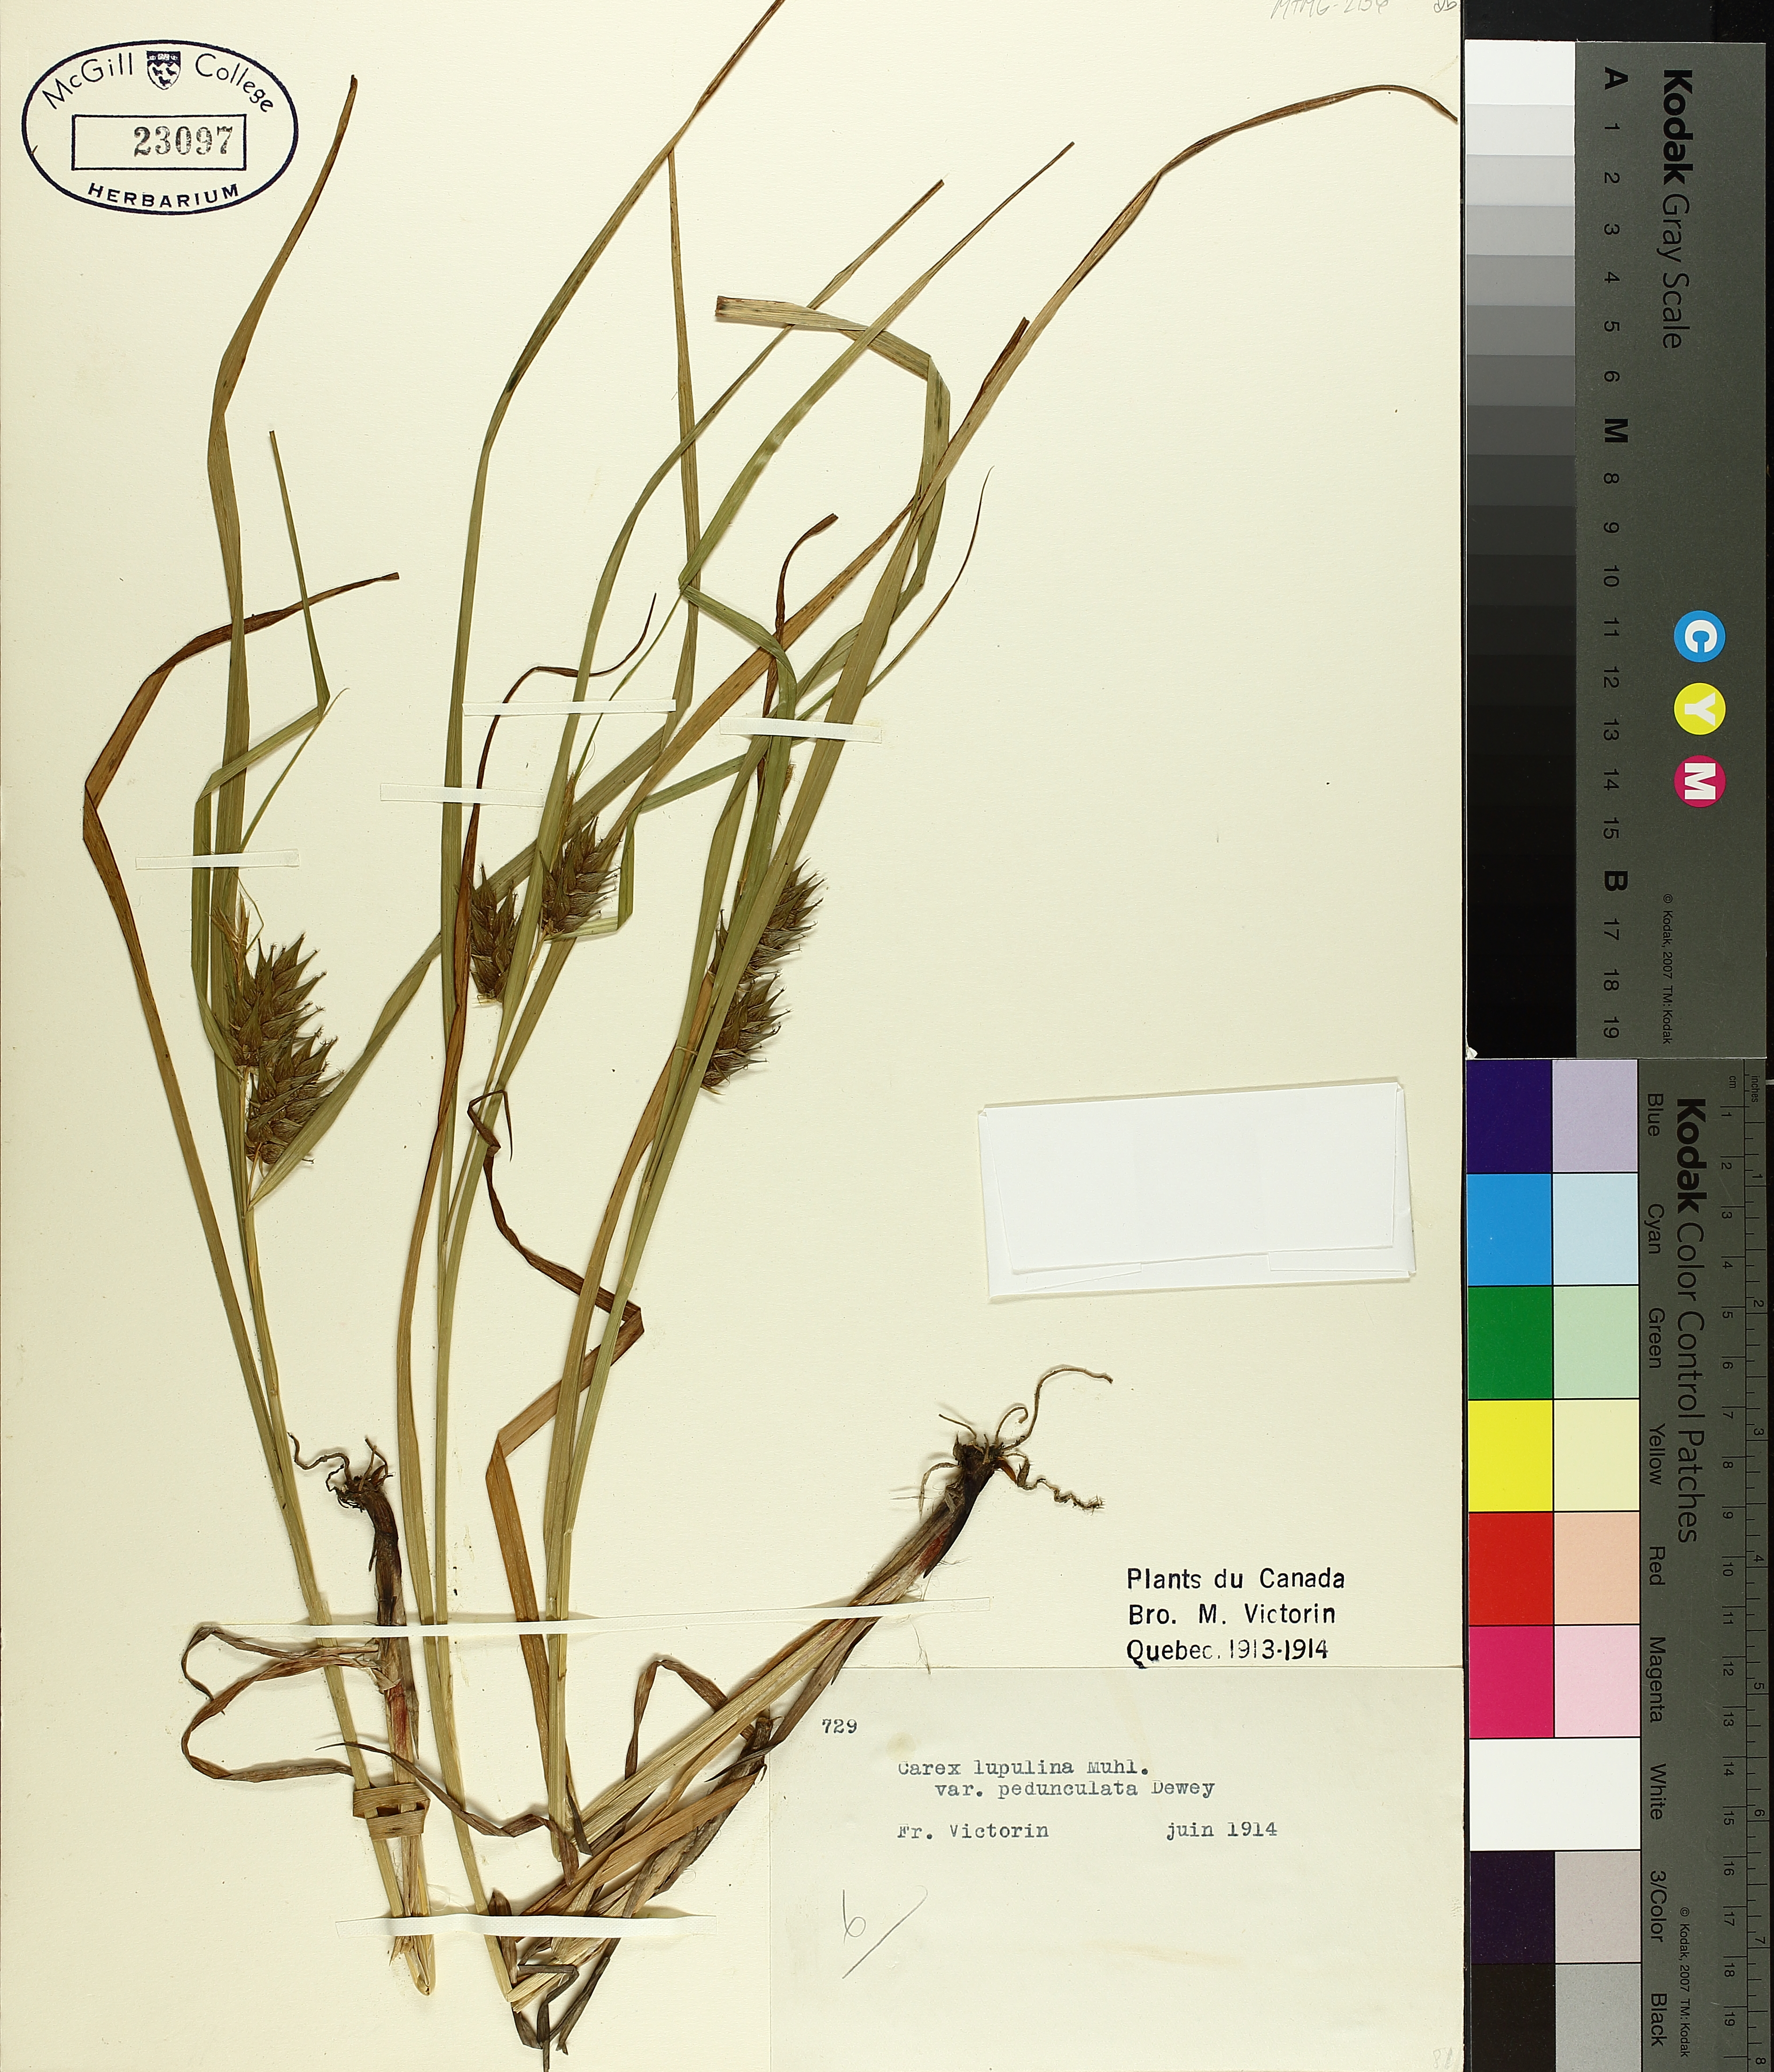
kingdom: Plantae
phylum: Tracheophyta
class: Liliopsida
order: Poales
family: Cyperaceae
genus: Carex
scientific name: Carex gigantea
